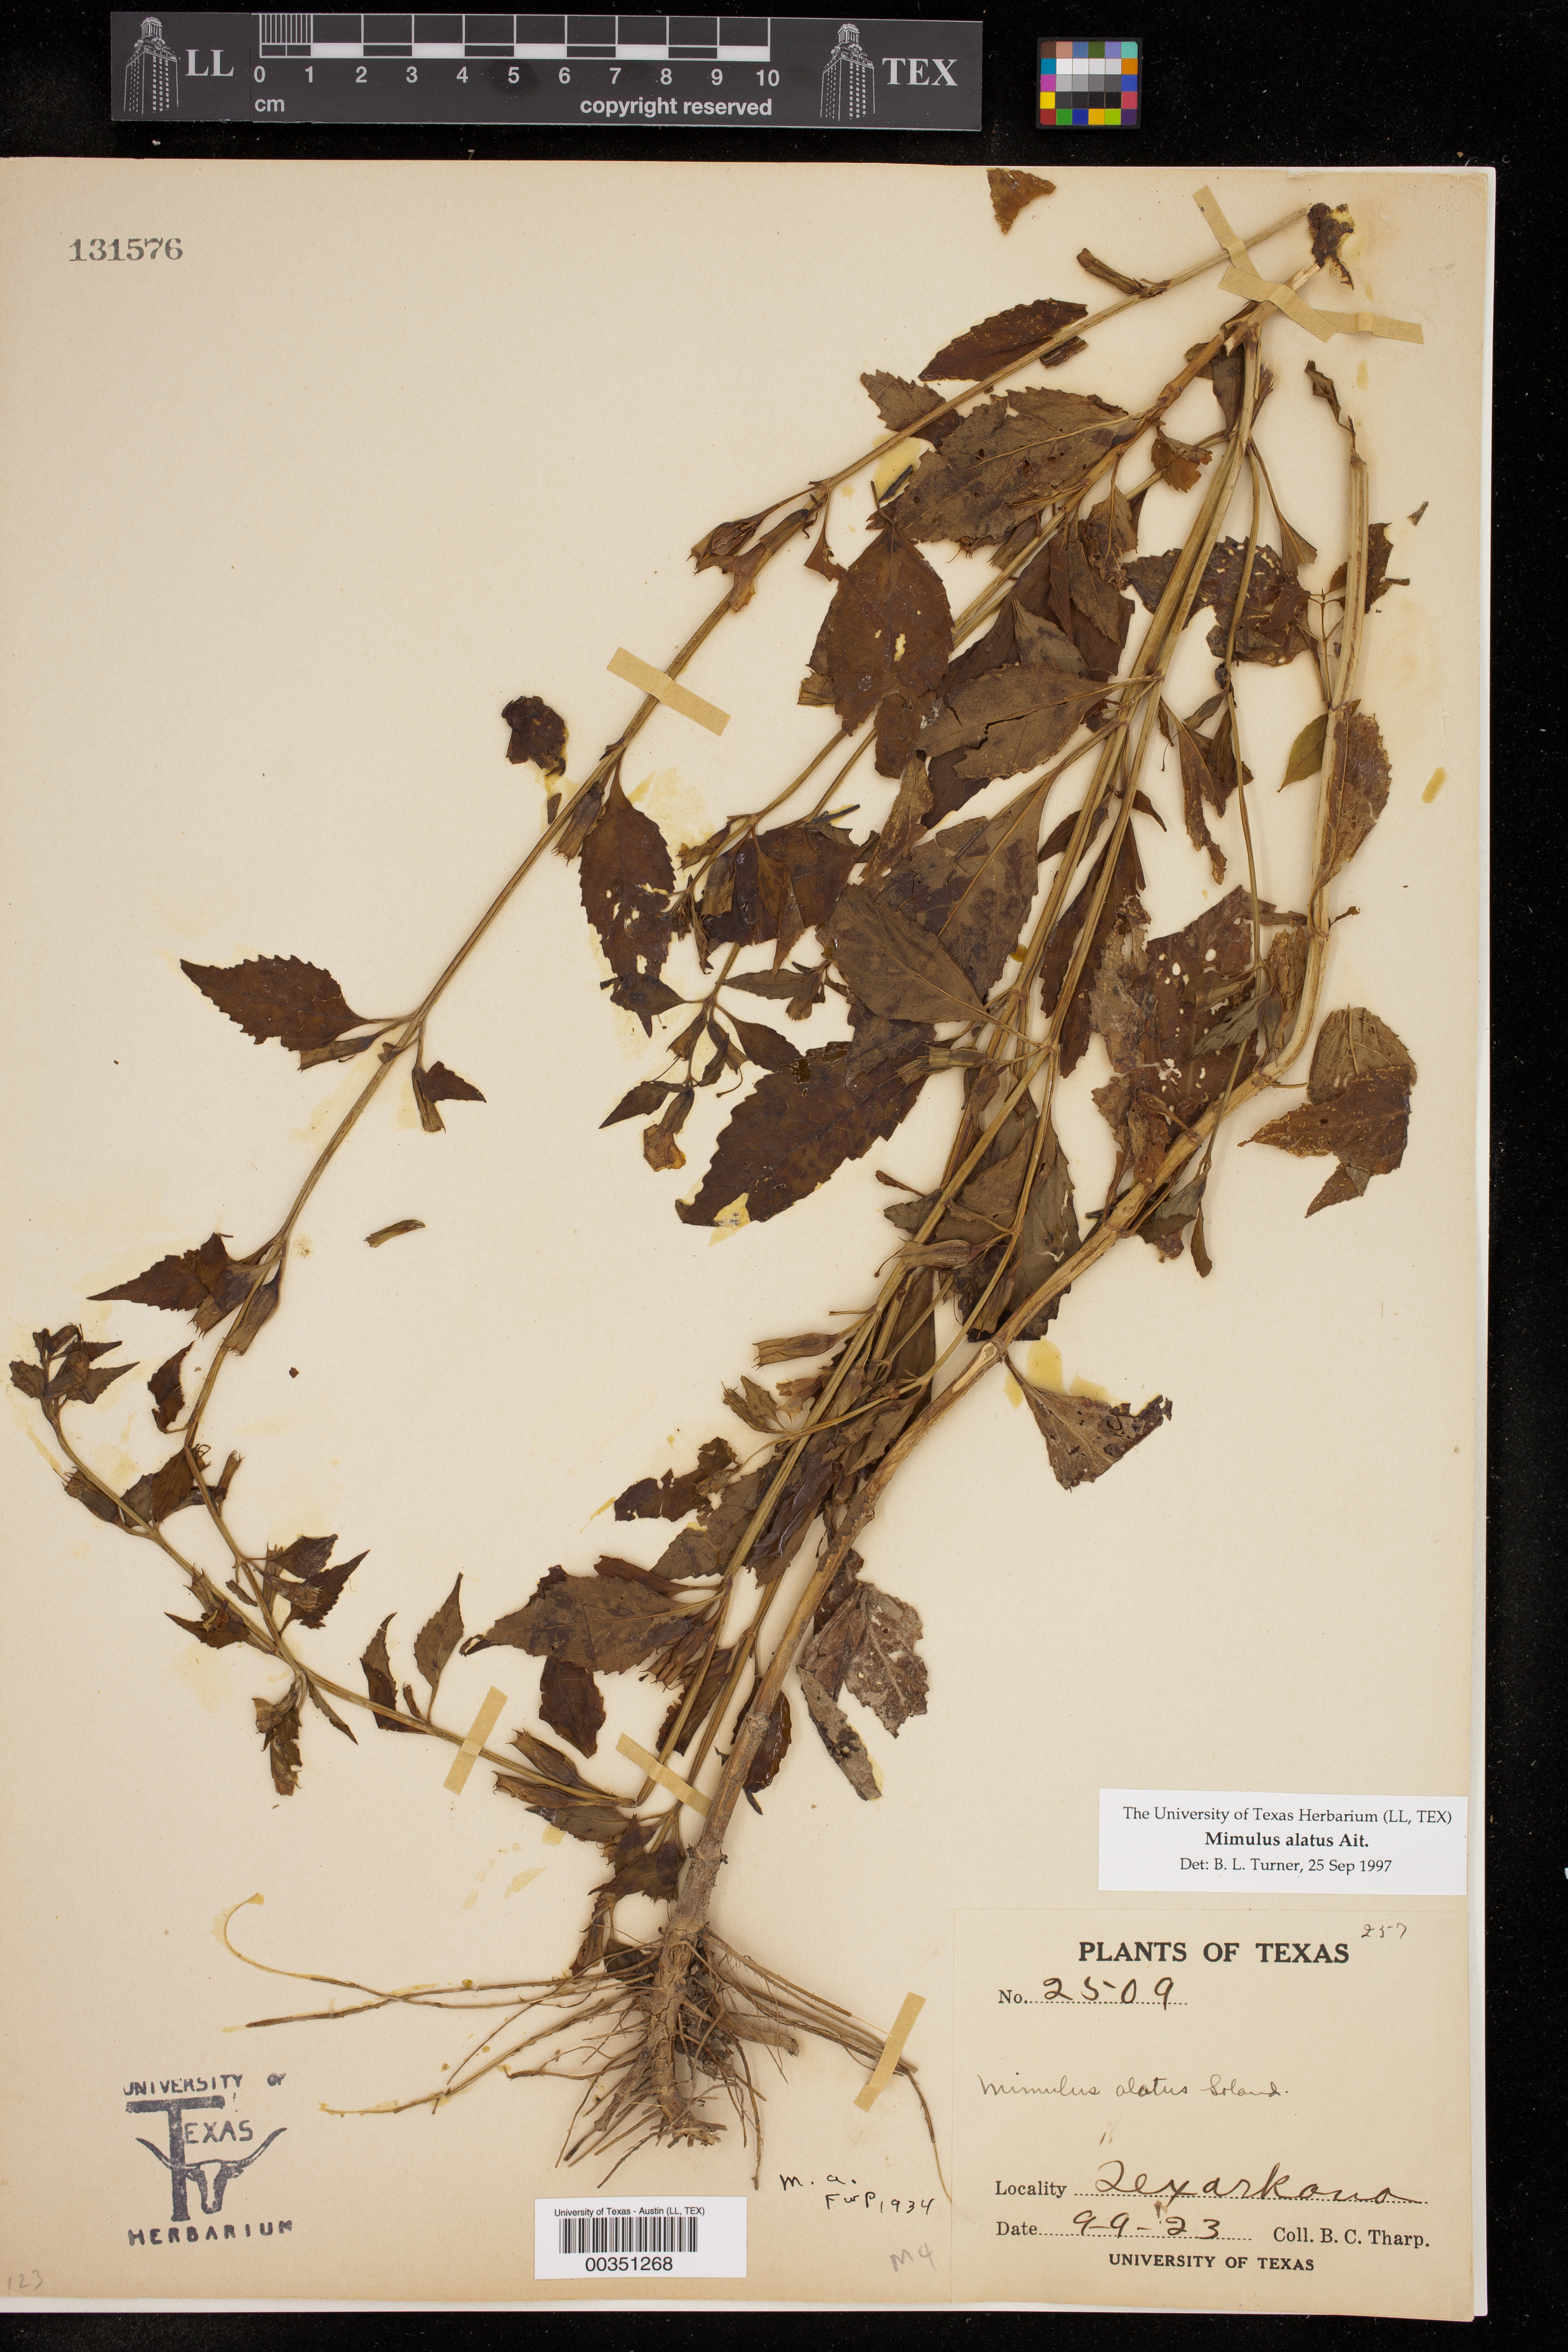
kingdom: Plantae
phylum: Tracheophyta
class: Magnoliopsida
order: Lamiales
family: Phrymaceae
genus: Mimulus
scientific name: Mimulus alatus
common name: Sharp-wing monkey-flower
